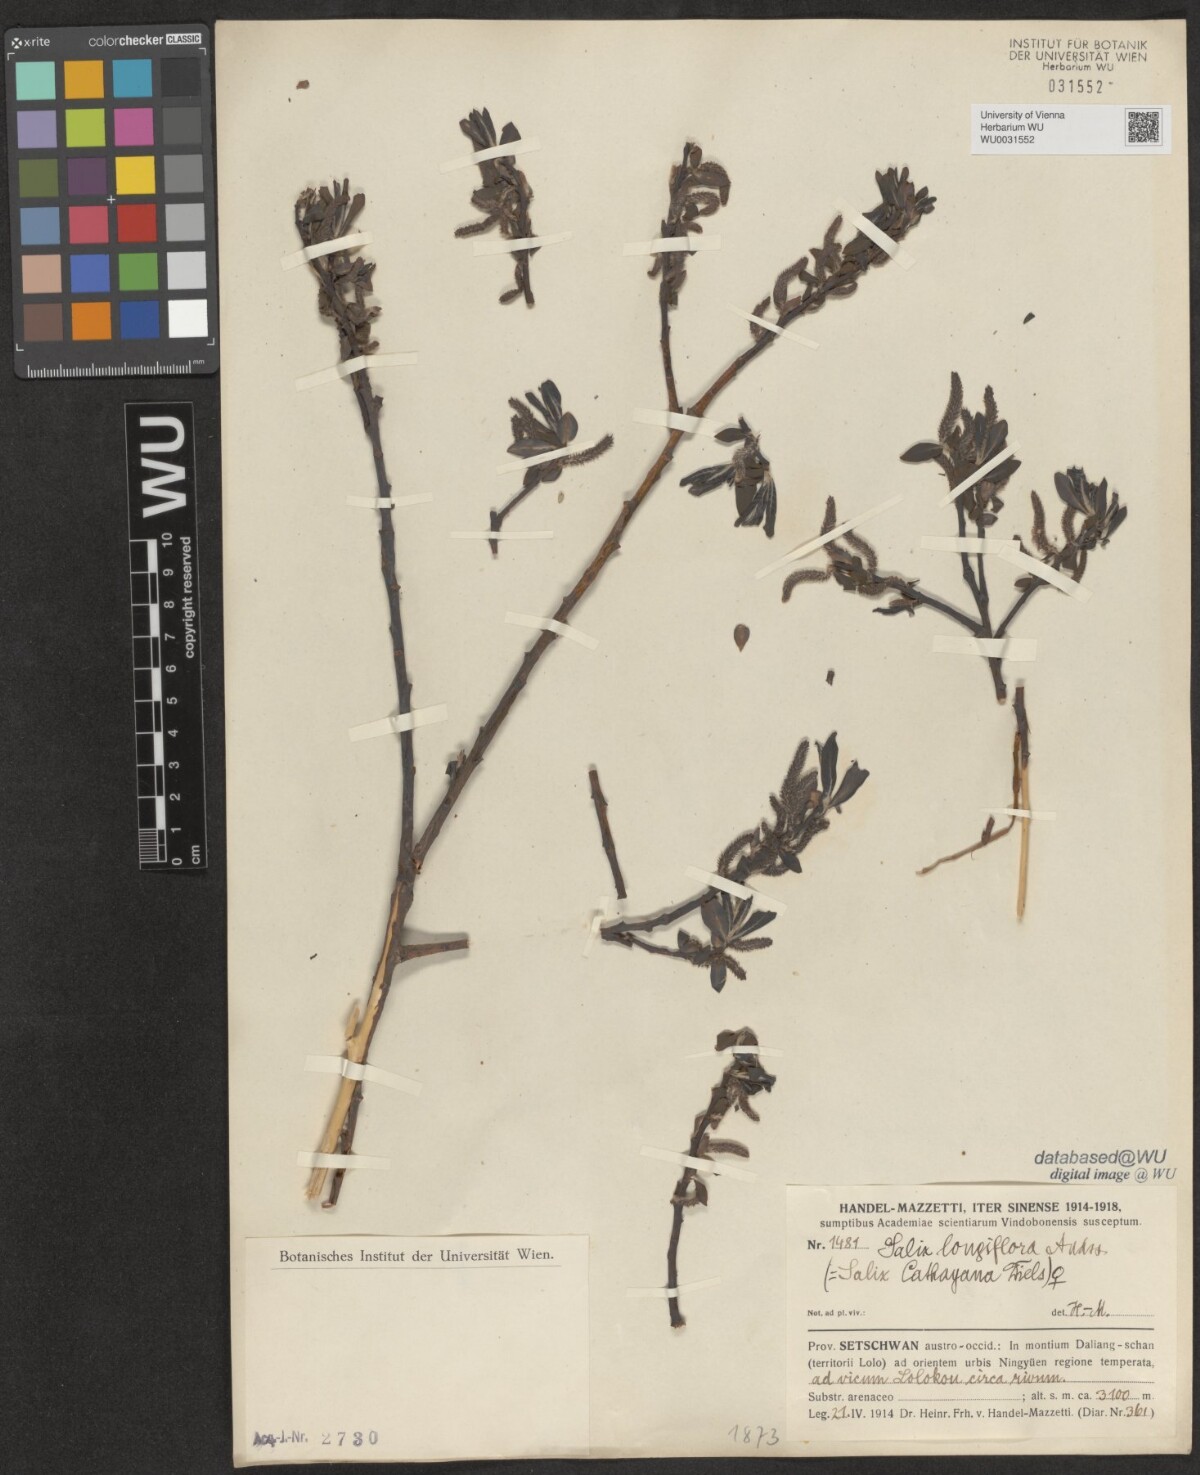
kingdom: Plantae
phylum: Tracheophyta
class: Magnoliopsida
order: Malpighiales
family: Salicaceae
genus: Salix
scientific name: Salix longiflora
